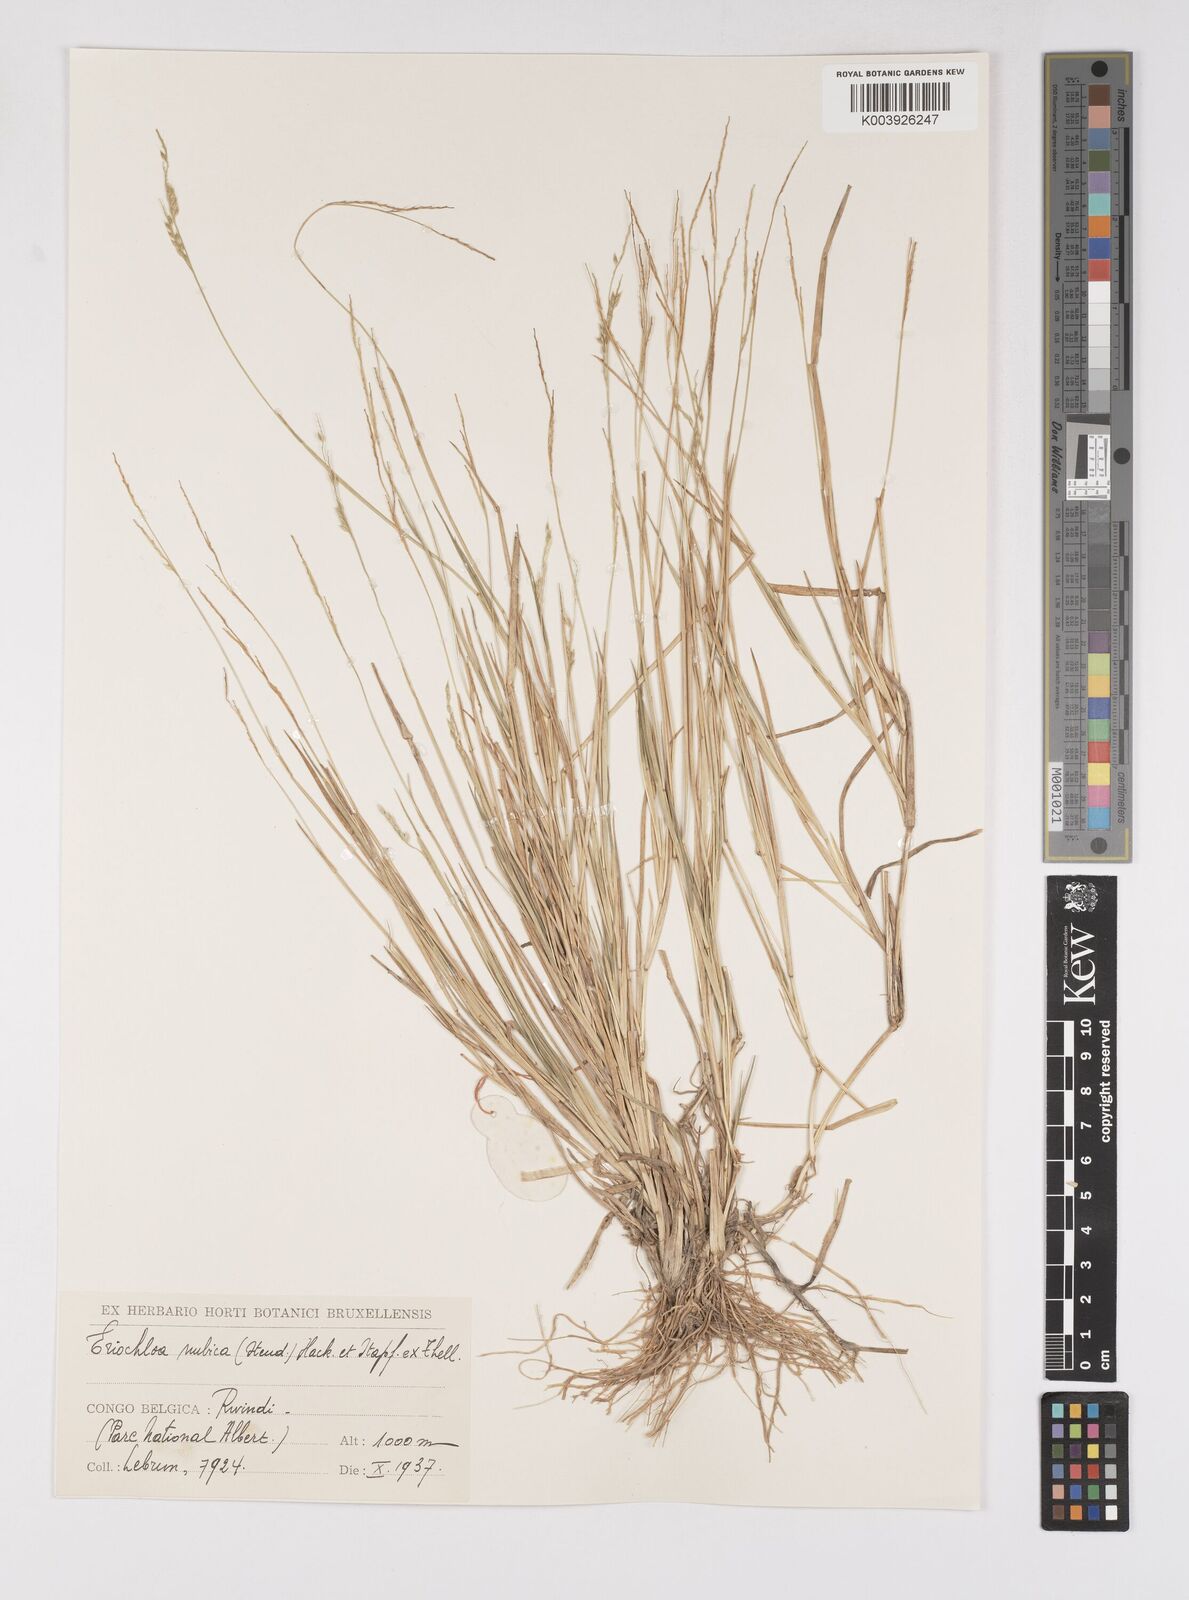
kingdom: Plantae
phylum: Tracheophyta
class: Liliopsida
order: Poales
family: Poaceae
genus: Eriochloa
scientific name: Eriochloa barbatus
